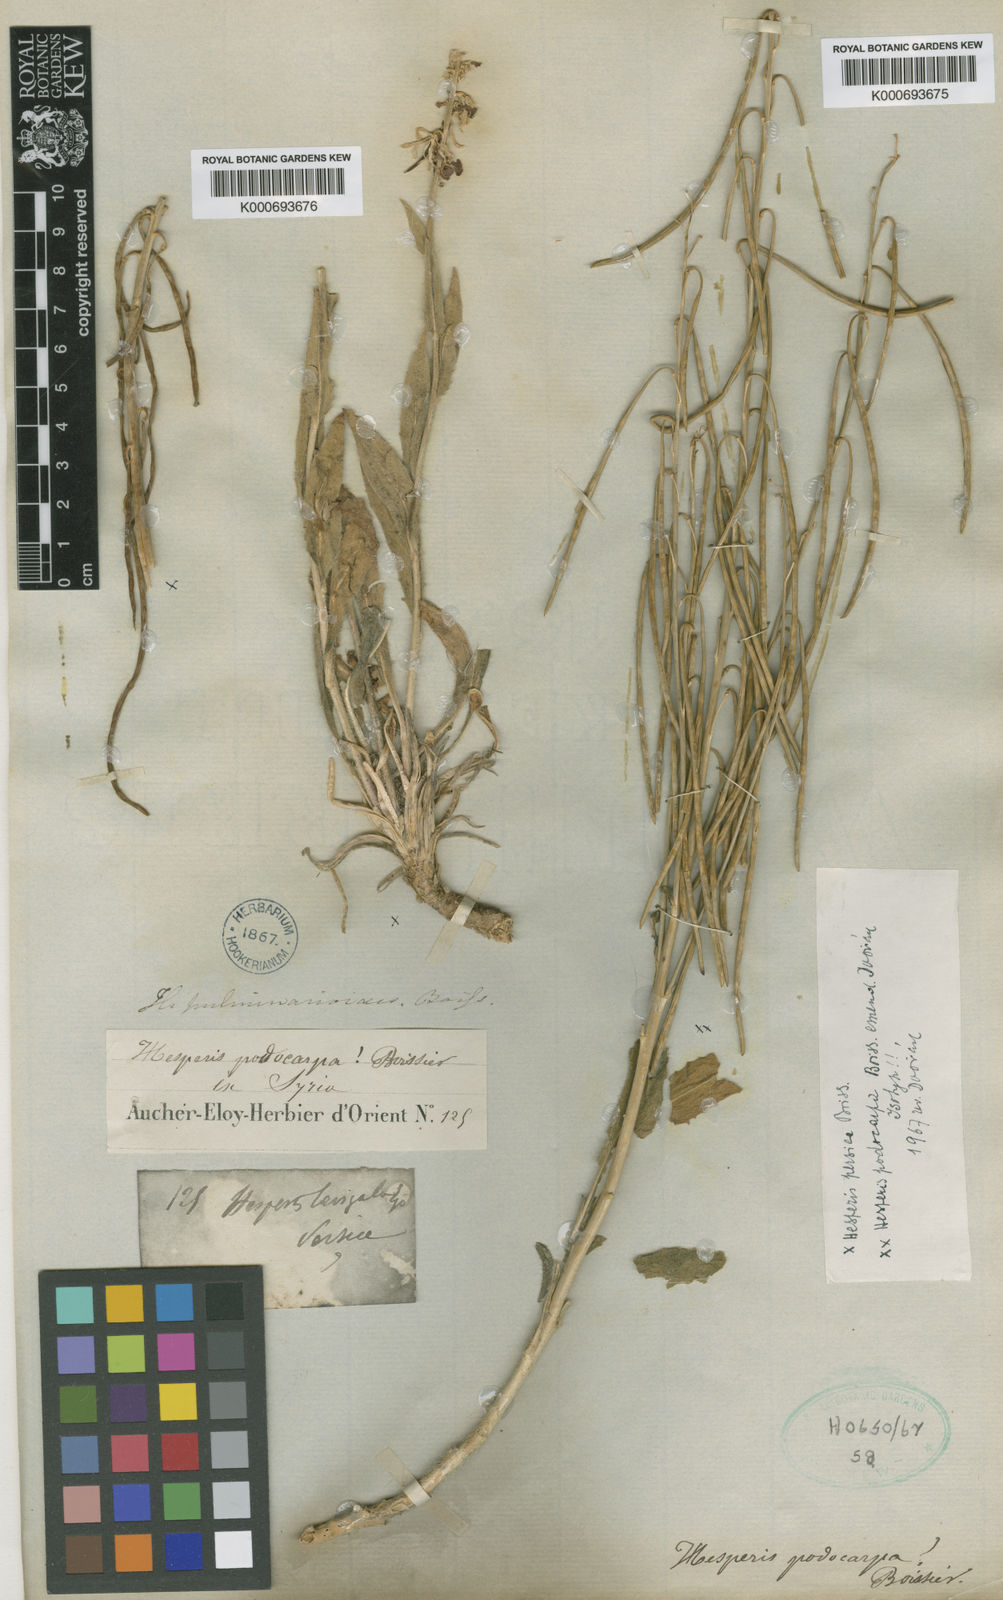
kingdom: Plantae
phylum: Tracheophyta
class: Magnoliopsida
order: Brassicales
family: Brassicaceae
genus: Hesperis
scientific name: Hesperis persica
